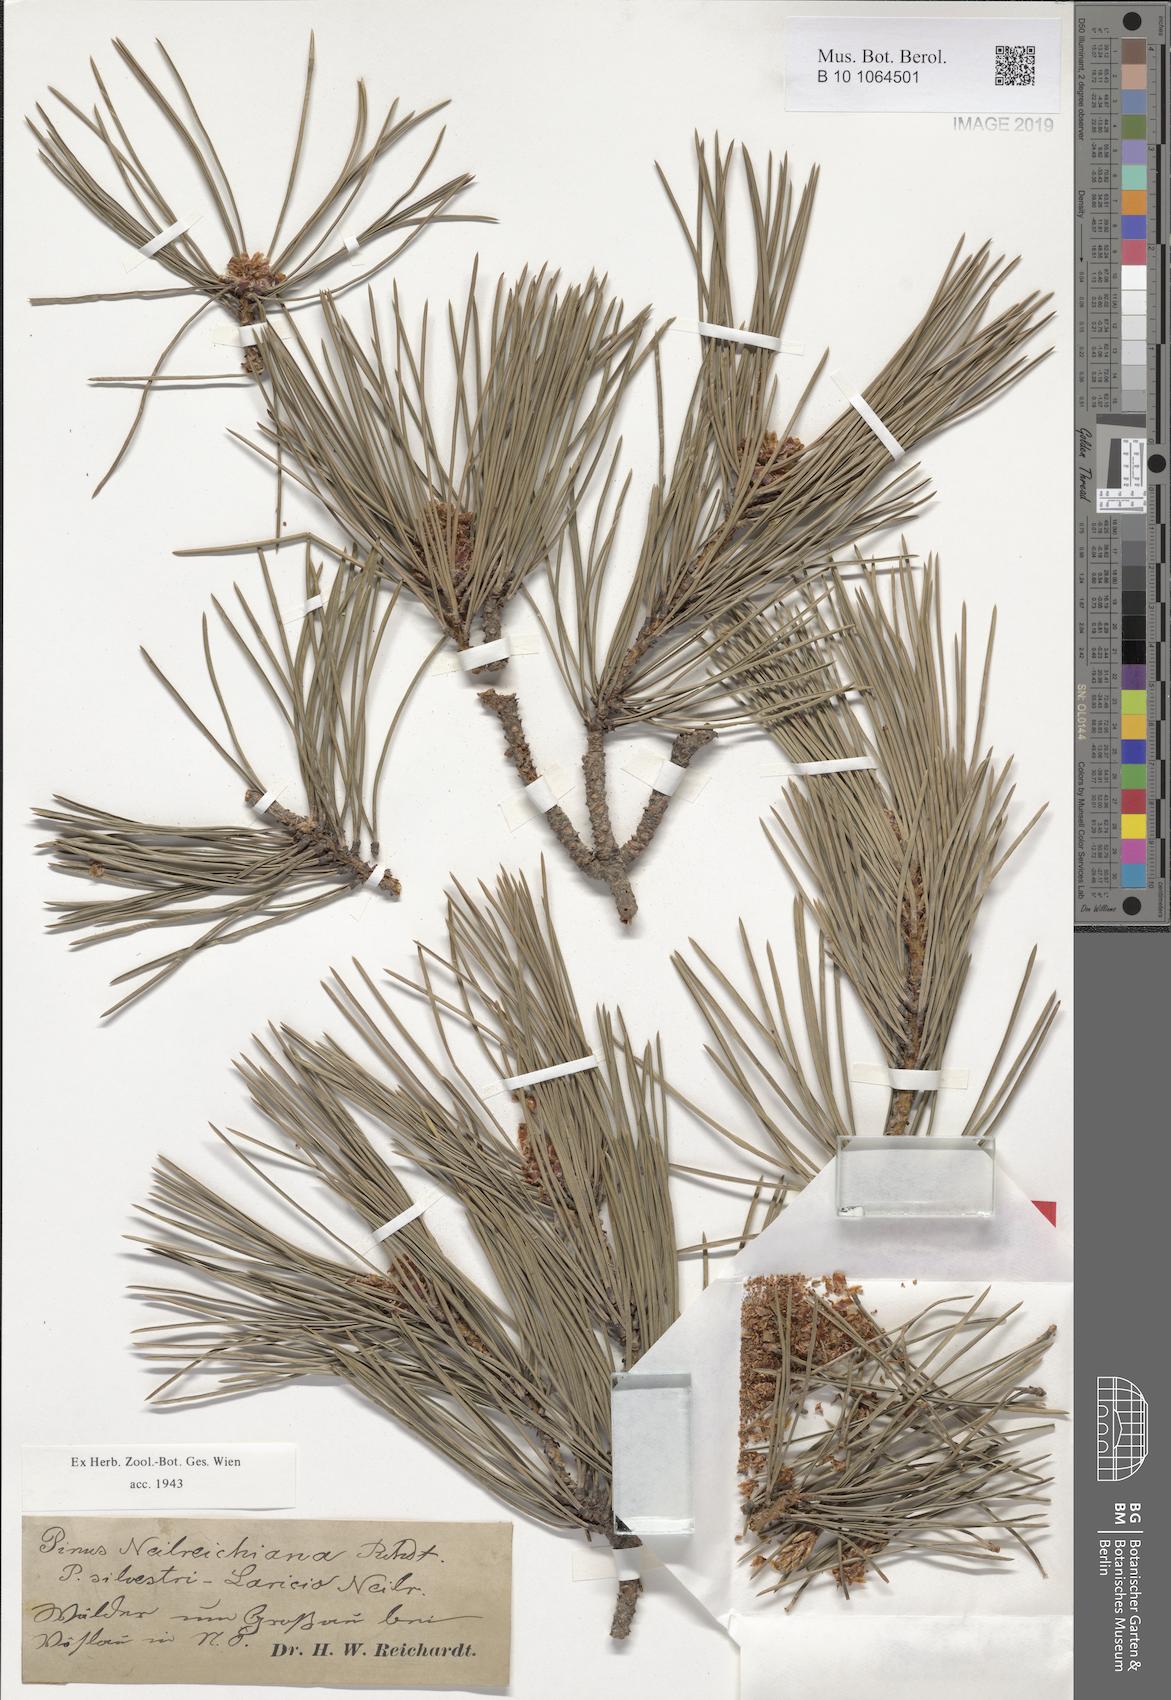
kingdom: Plantae
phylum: Tracheophyta
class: Pinopsida
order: Pinales
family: Pinaceae
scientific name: Pinaceae
